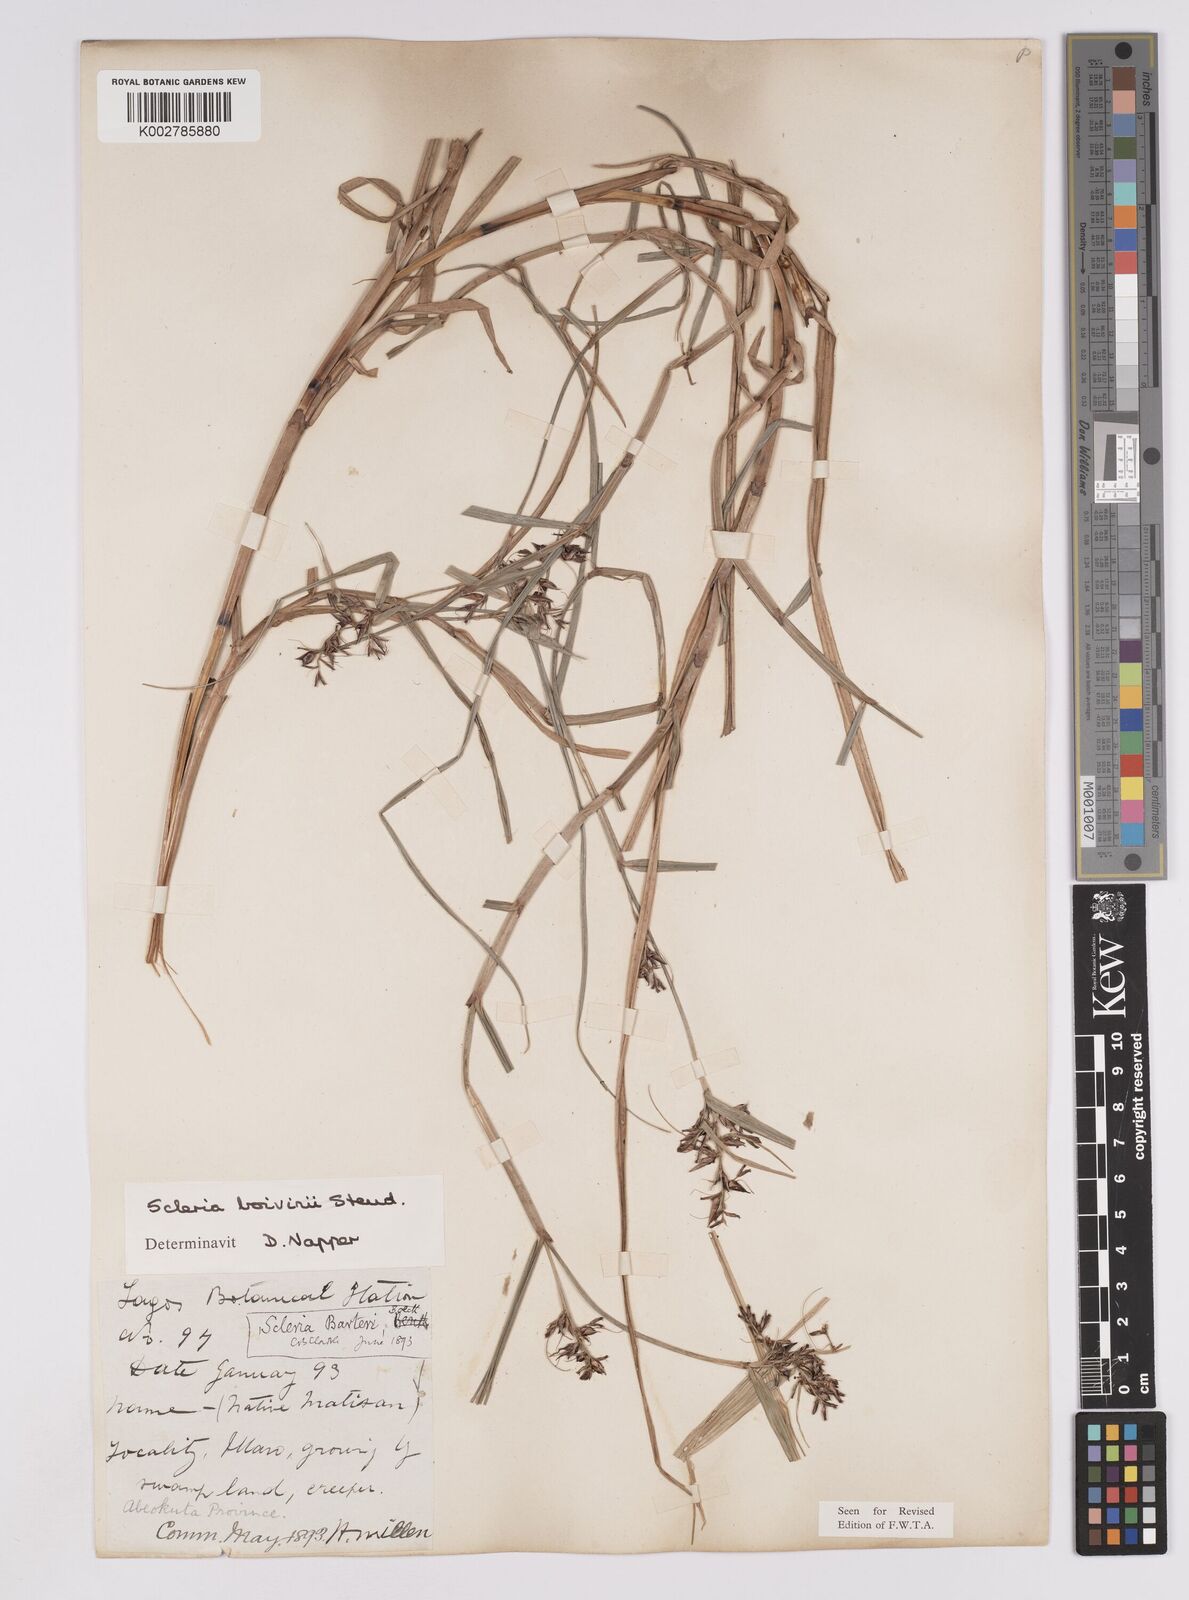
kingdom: Plantae
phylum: Tracheophyta
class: Liliopsida
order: Poales
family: Cyperaceae
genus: Scleria
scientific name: Scleria boivinii
